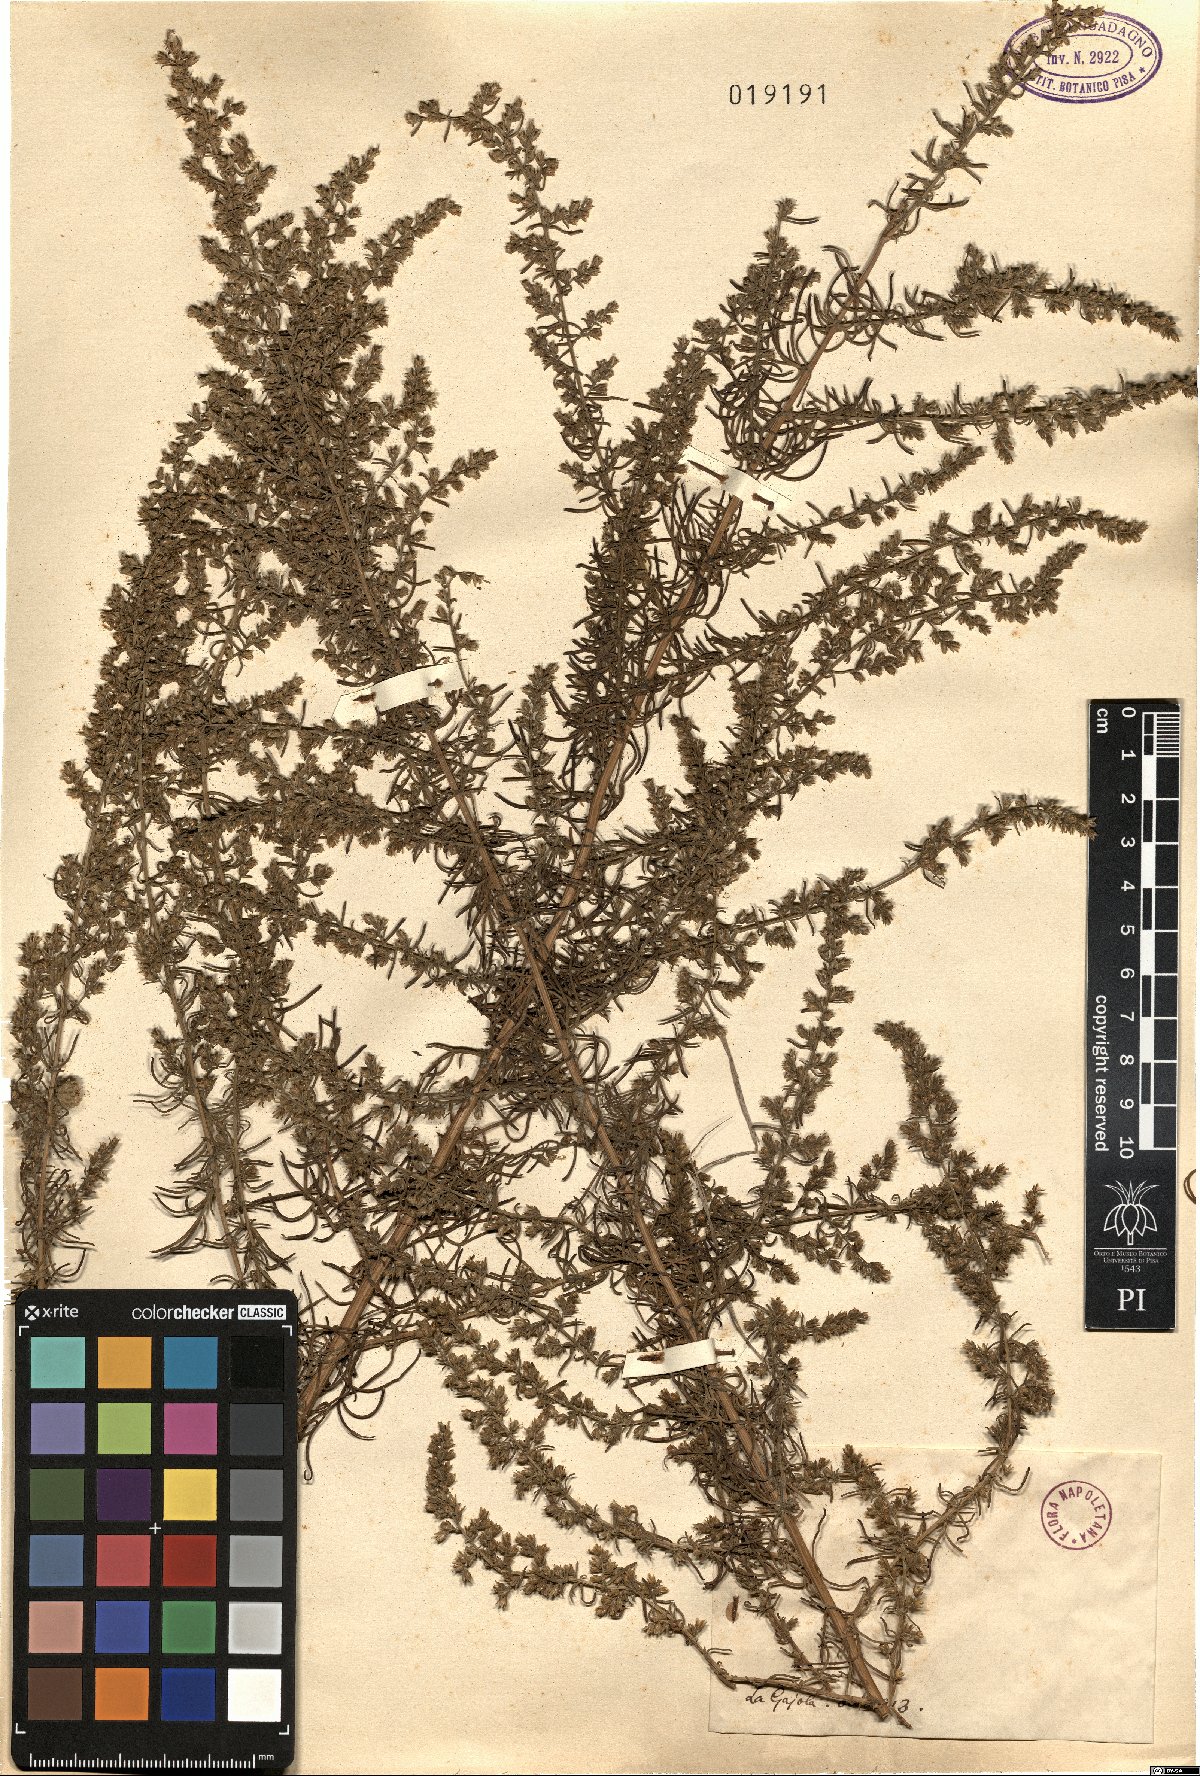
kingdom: Plantae
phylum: Tracheophyta
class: Magnoliopsida
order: Asterales
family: Asteraceae
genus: Artemisia
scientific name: Artemisia
